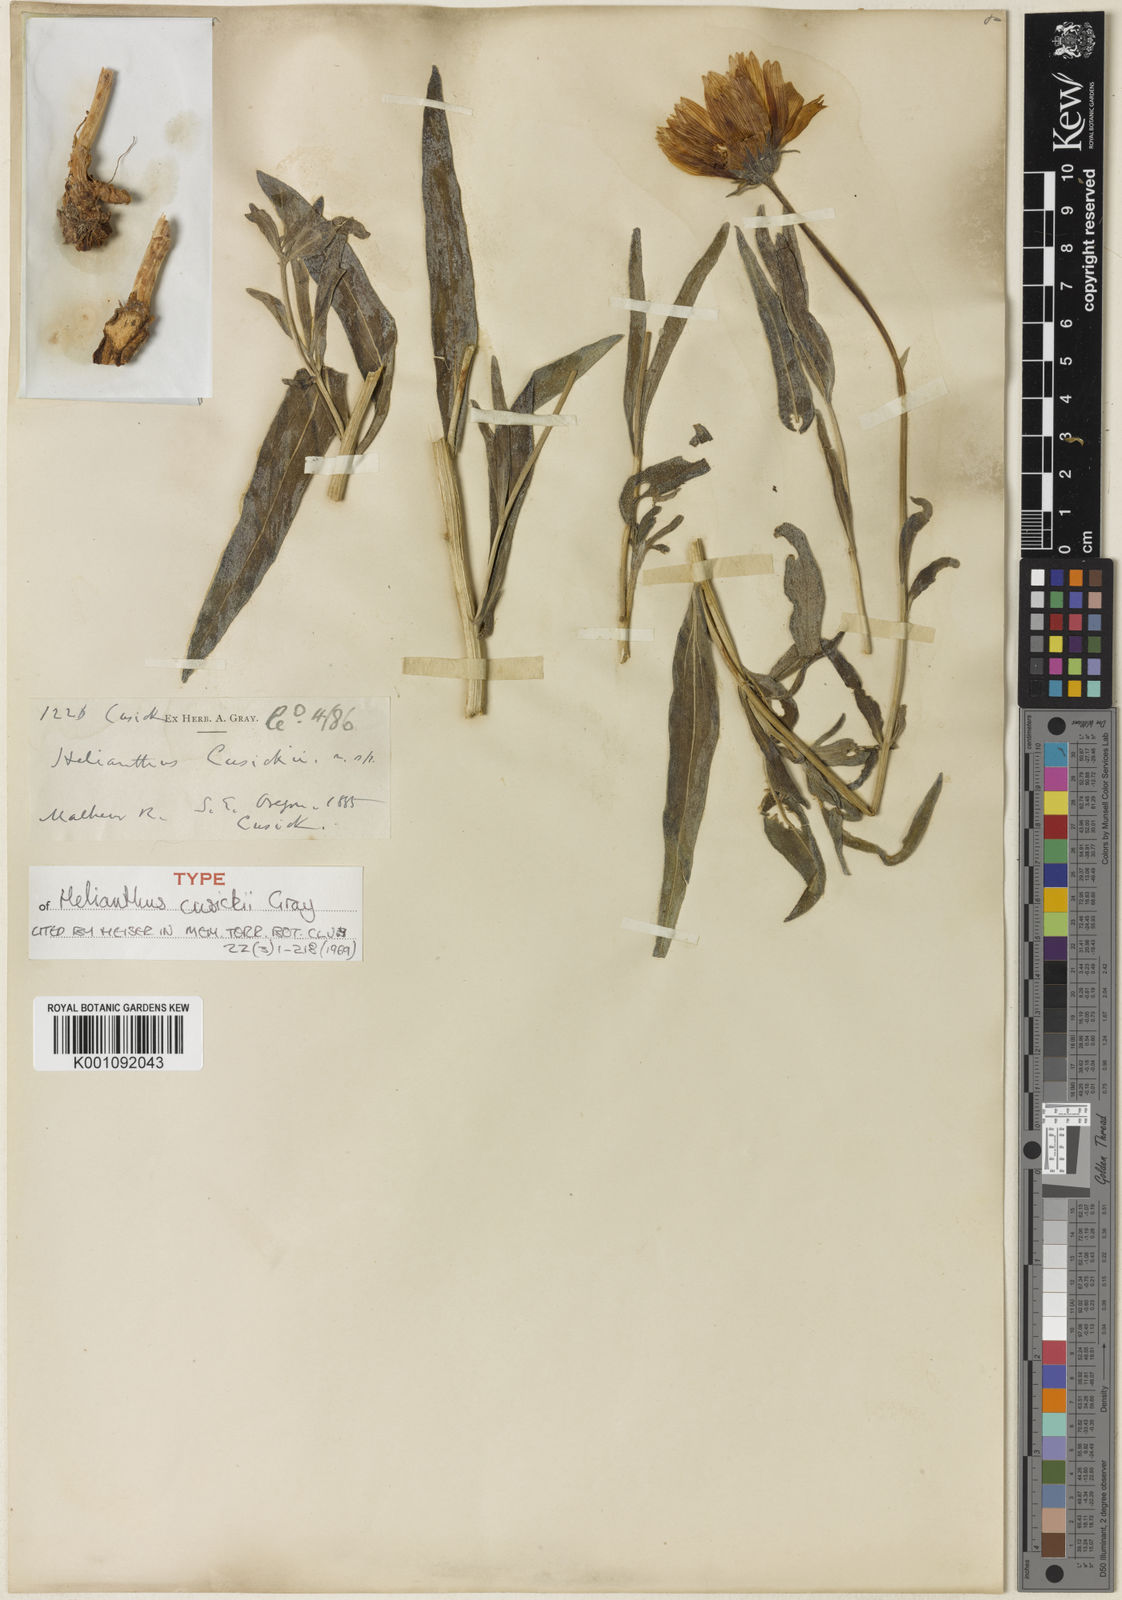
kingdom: Plantae
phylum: Tracheophyta
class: Magnoliopsida
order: Asterales
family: Asteraceae
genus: Helianthus
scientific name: Helianthus cusickii
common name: Cusick's sunflower
